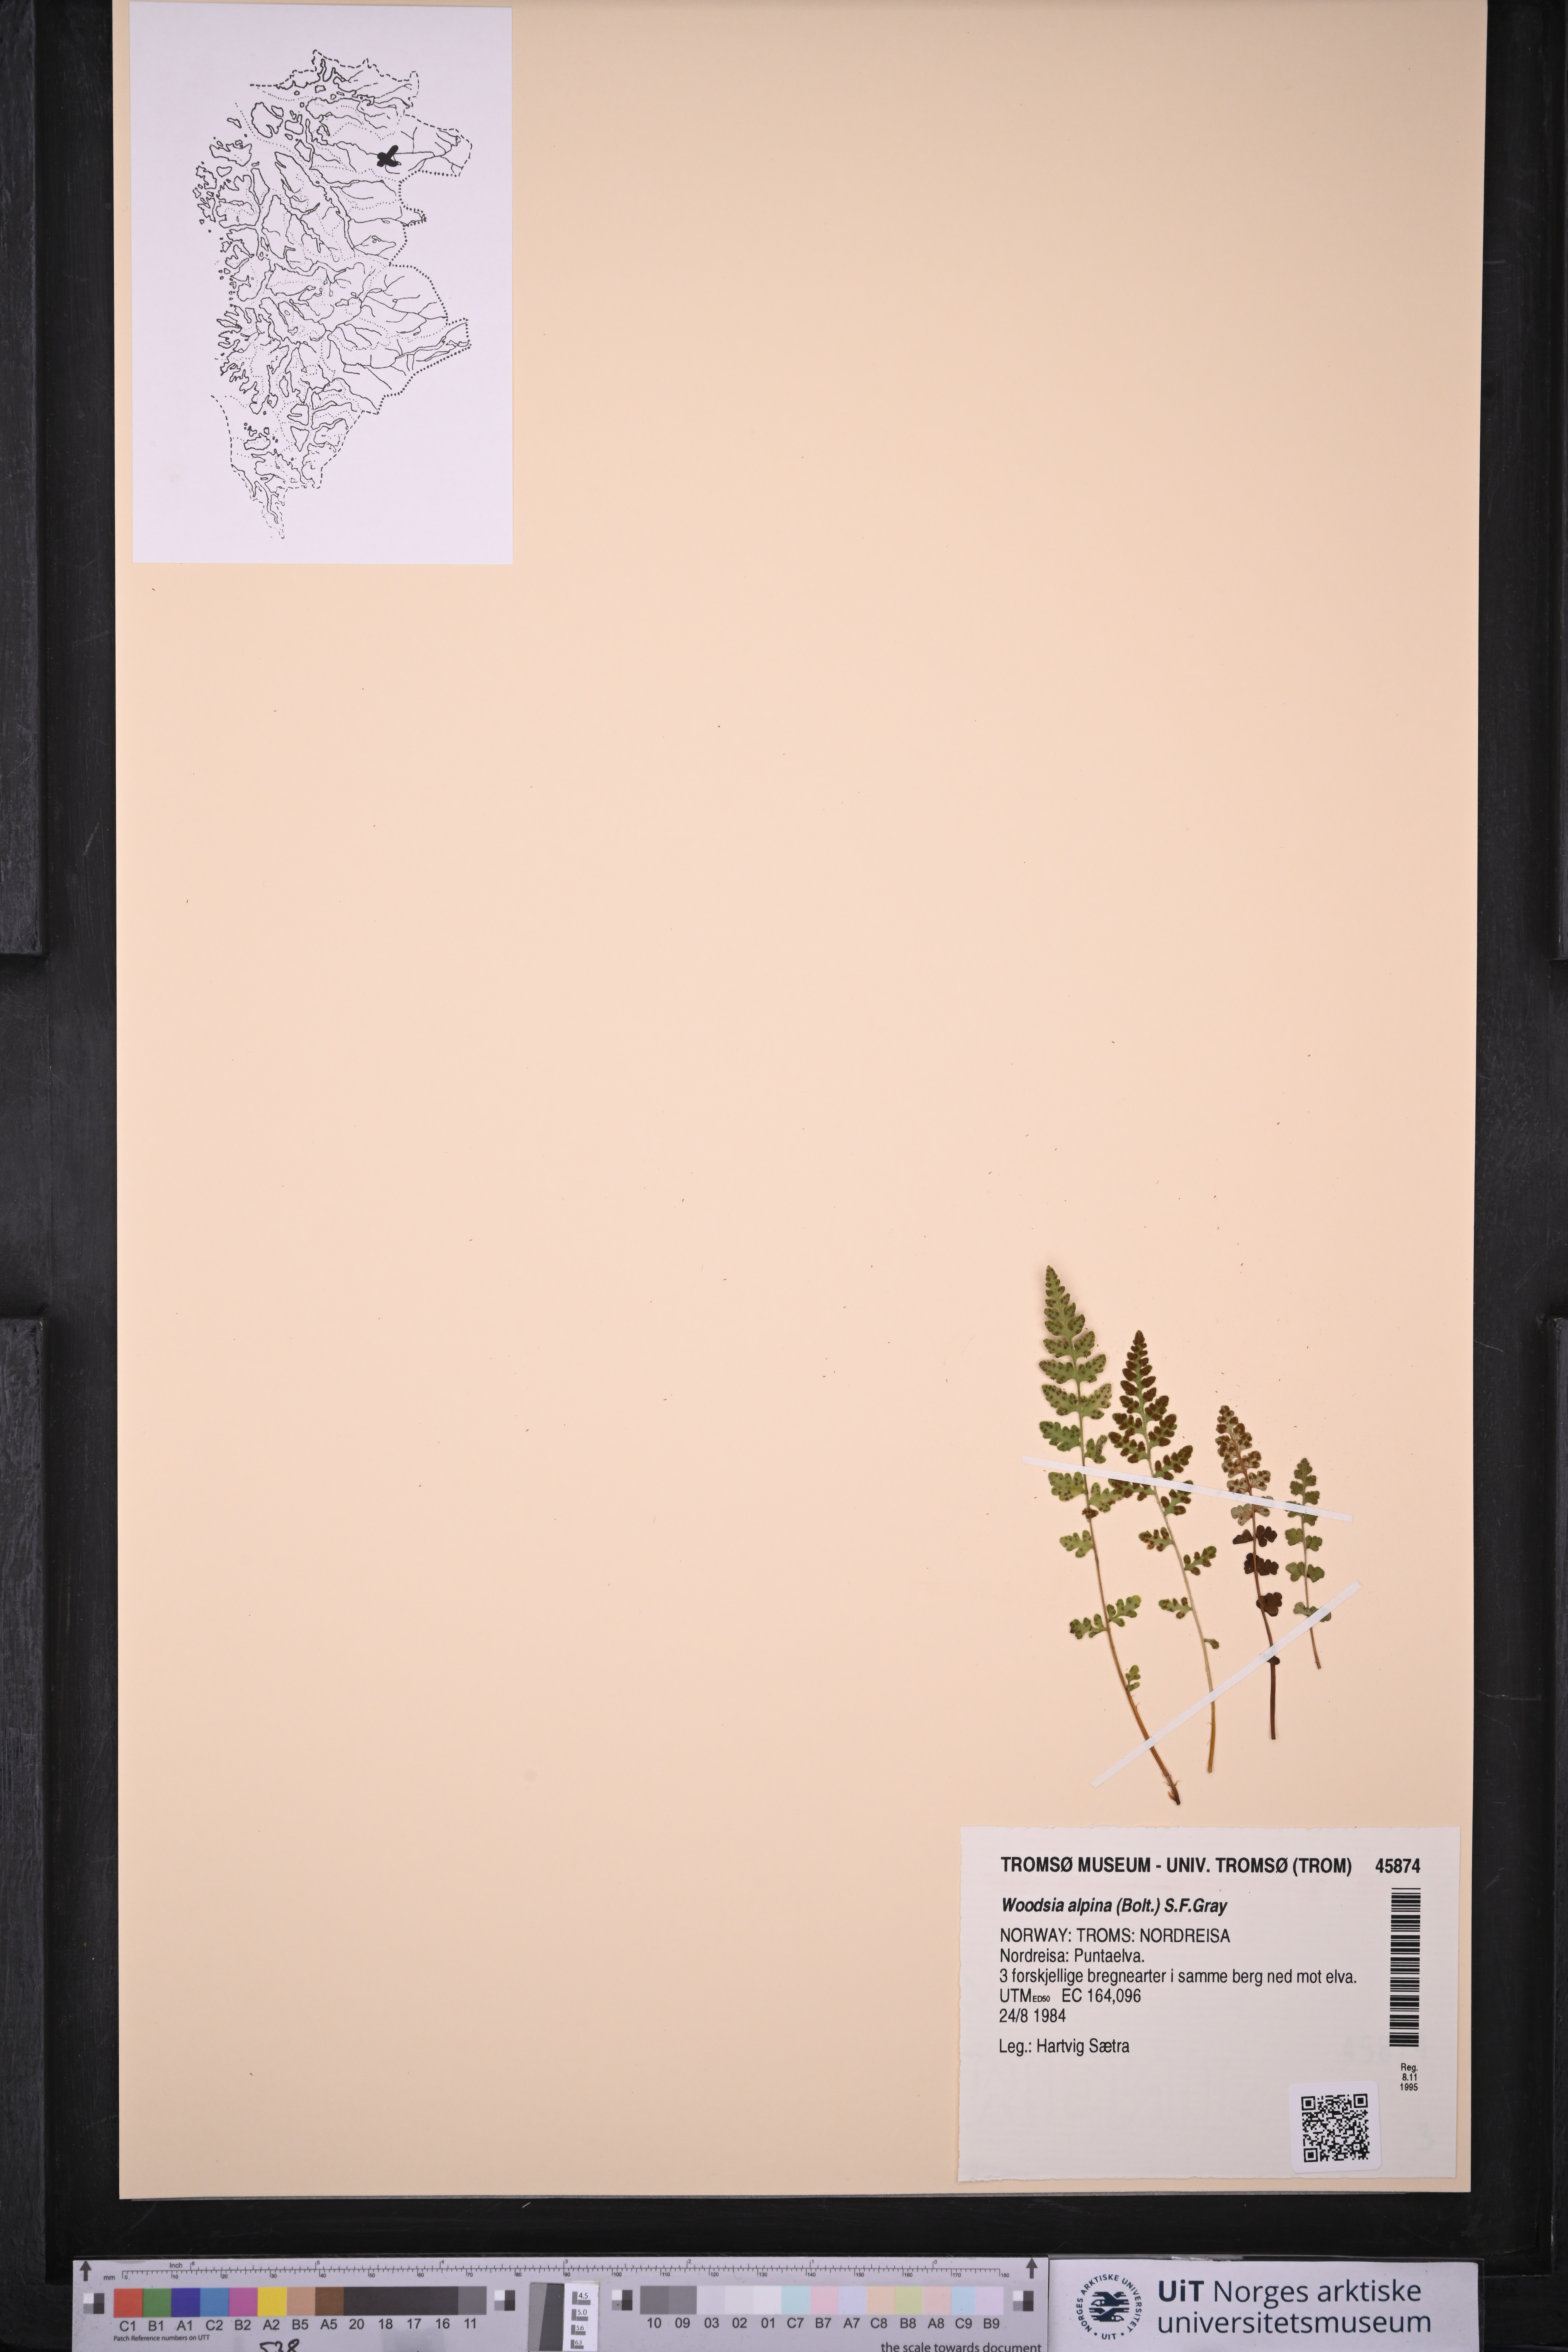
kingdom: Plantae
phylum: Tracheophyta
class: Polypodiopsida
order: Polypodiales
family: Woodsiaceae
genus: Woodsia
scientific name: Woodsia alpina
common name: Alpine woodsia
